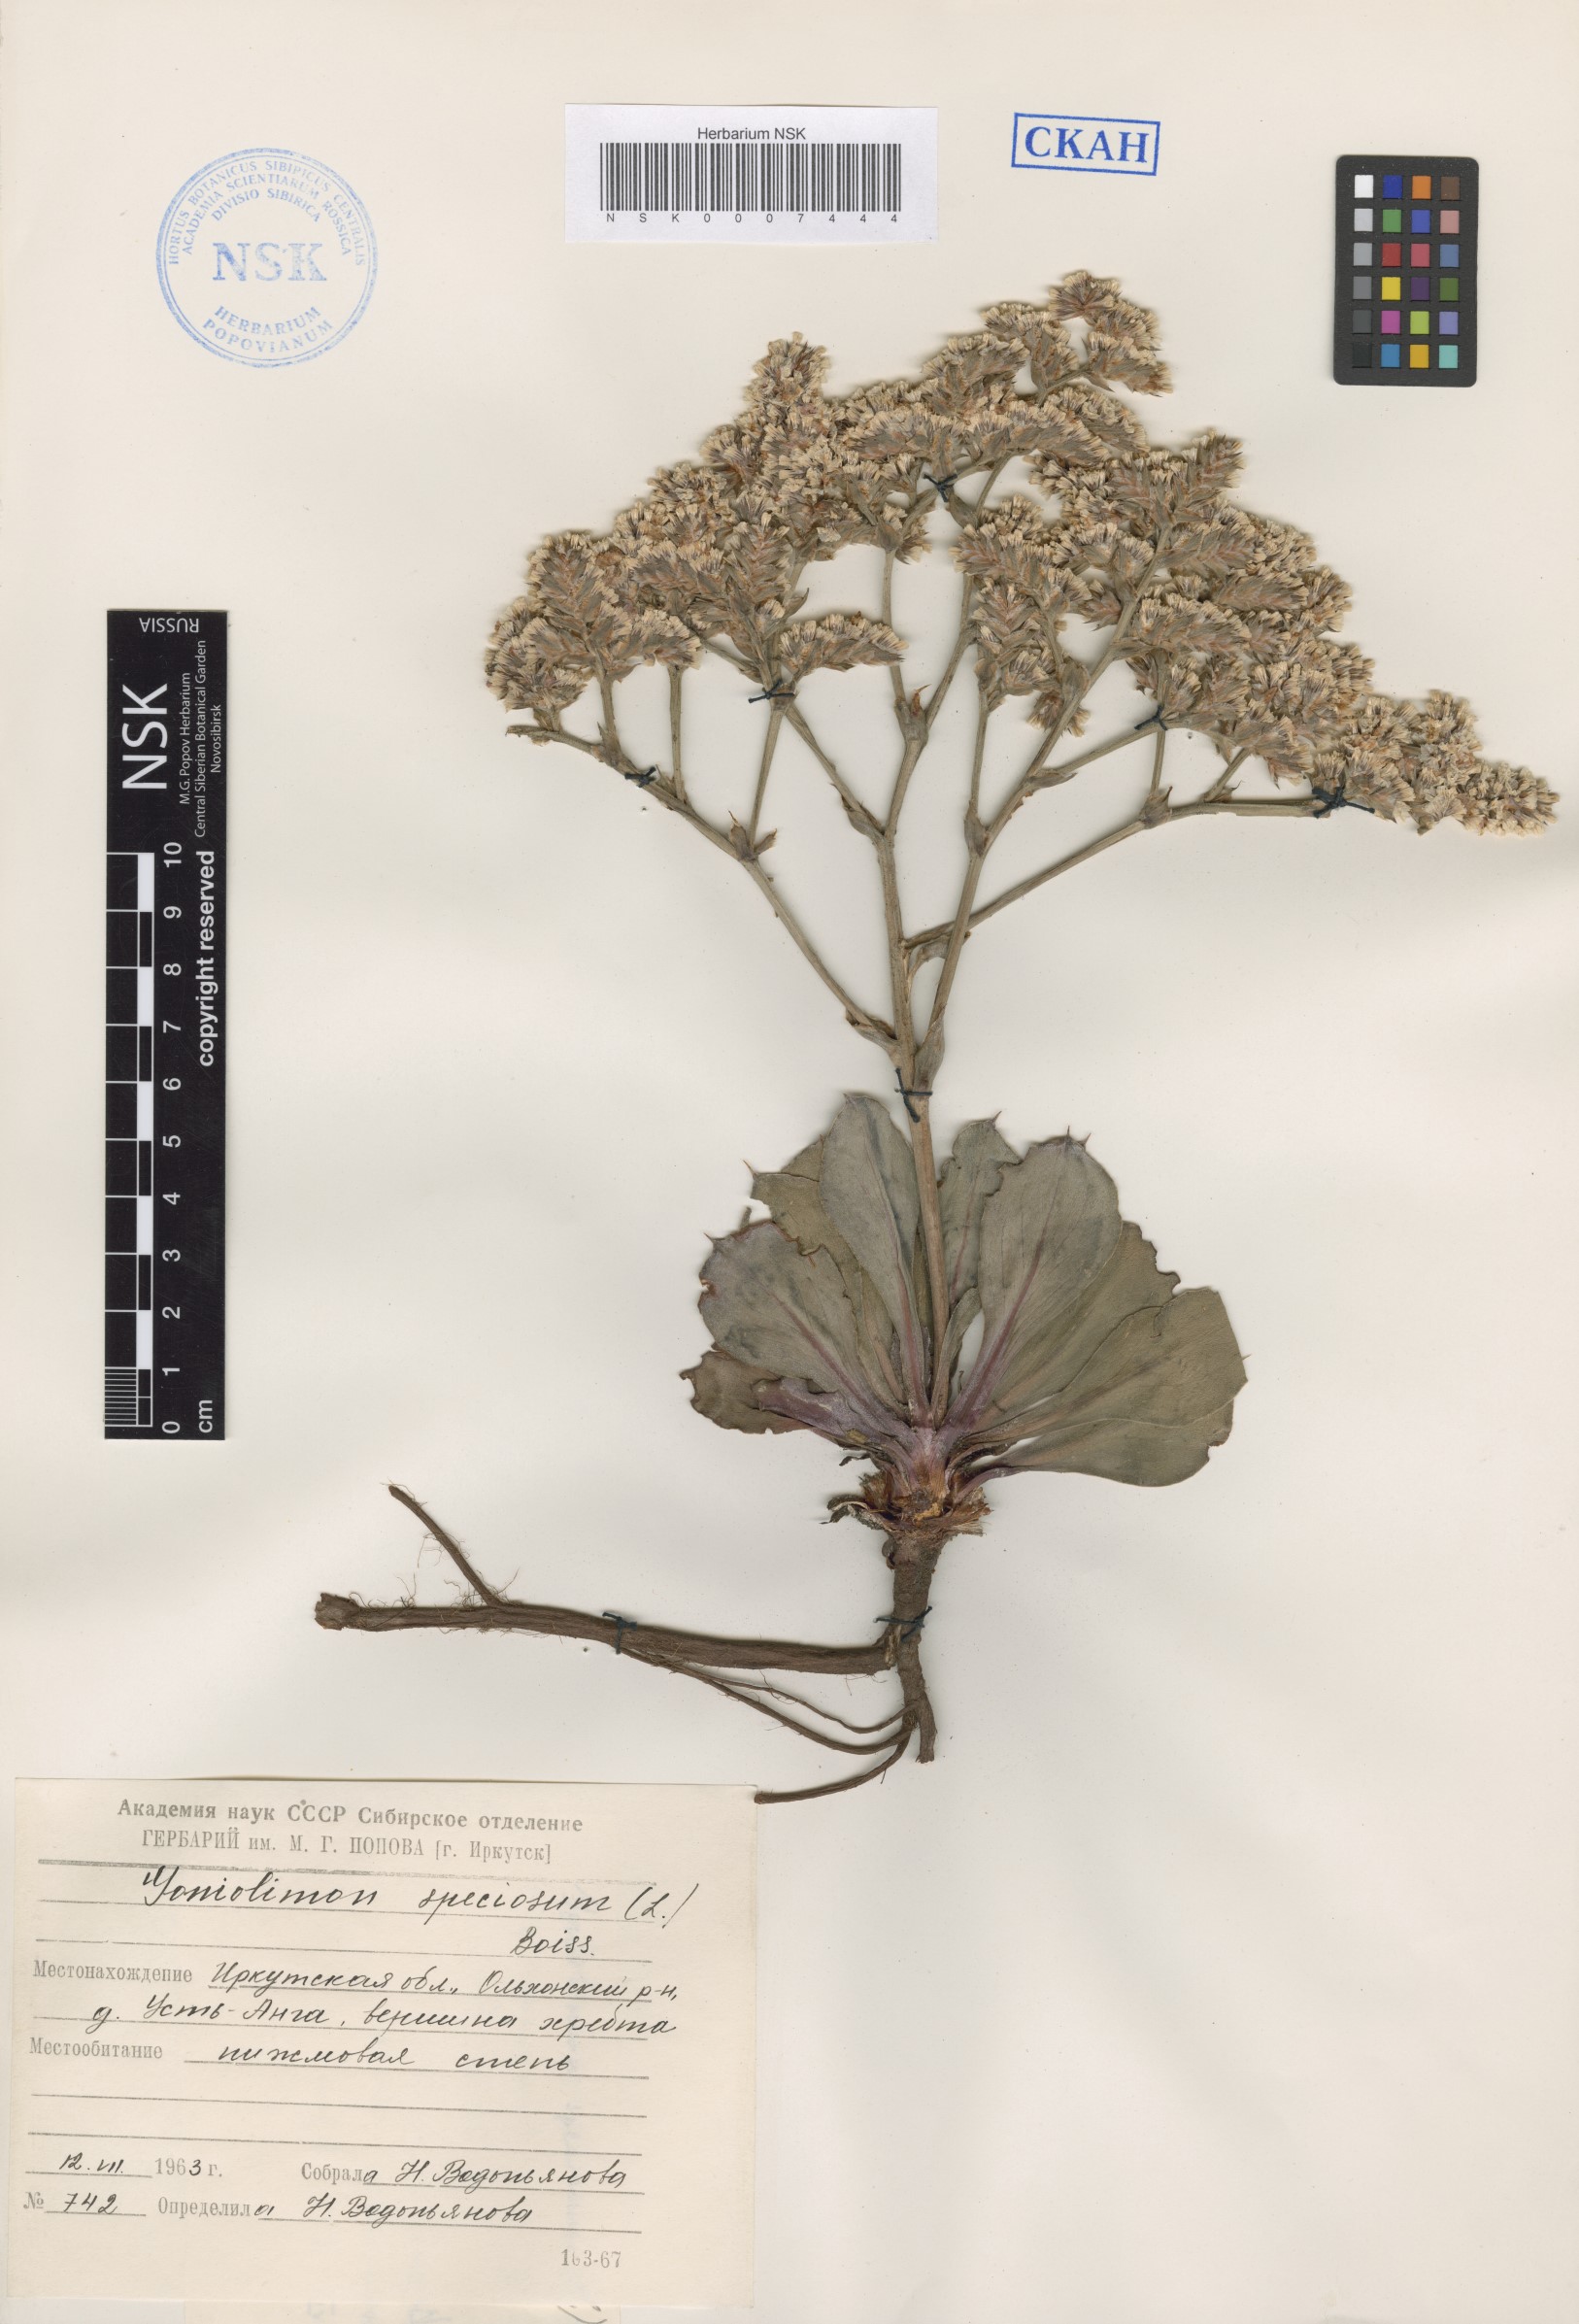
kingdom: Plantae
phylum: Tracheophyta
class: Magnoliopsida
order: Caryophyllales
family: Plumbaginaceae
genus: Goniolimon
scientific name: Goniolimon speciosum
